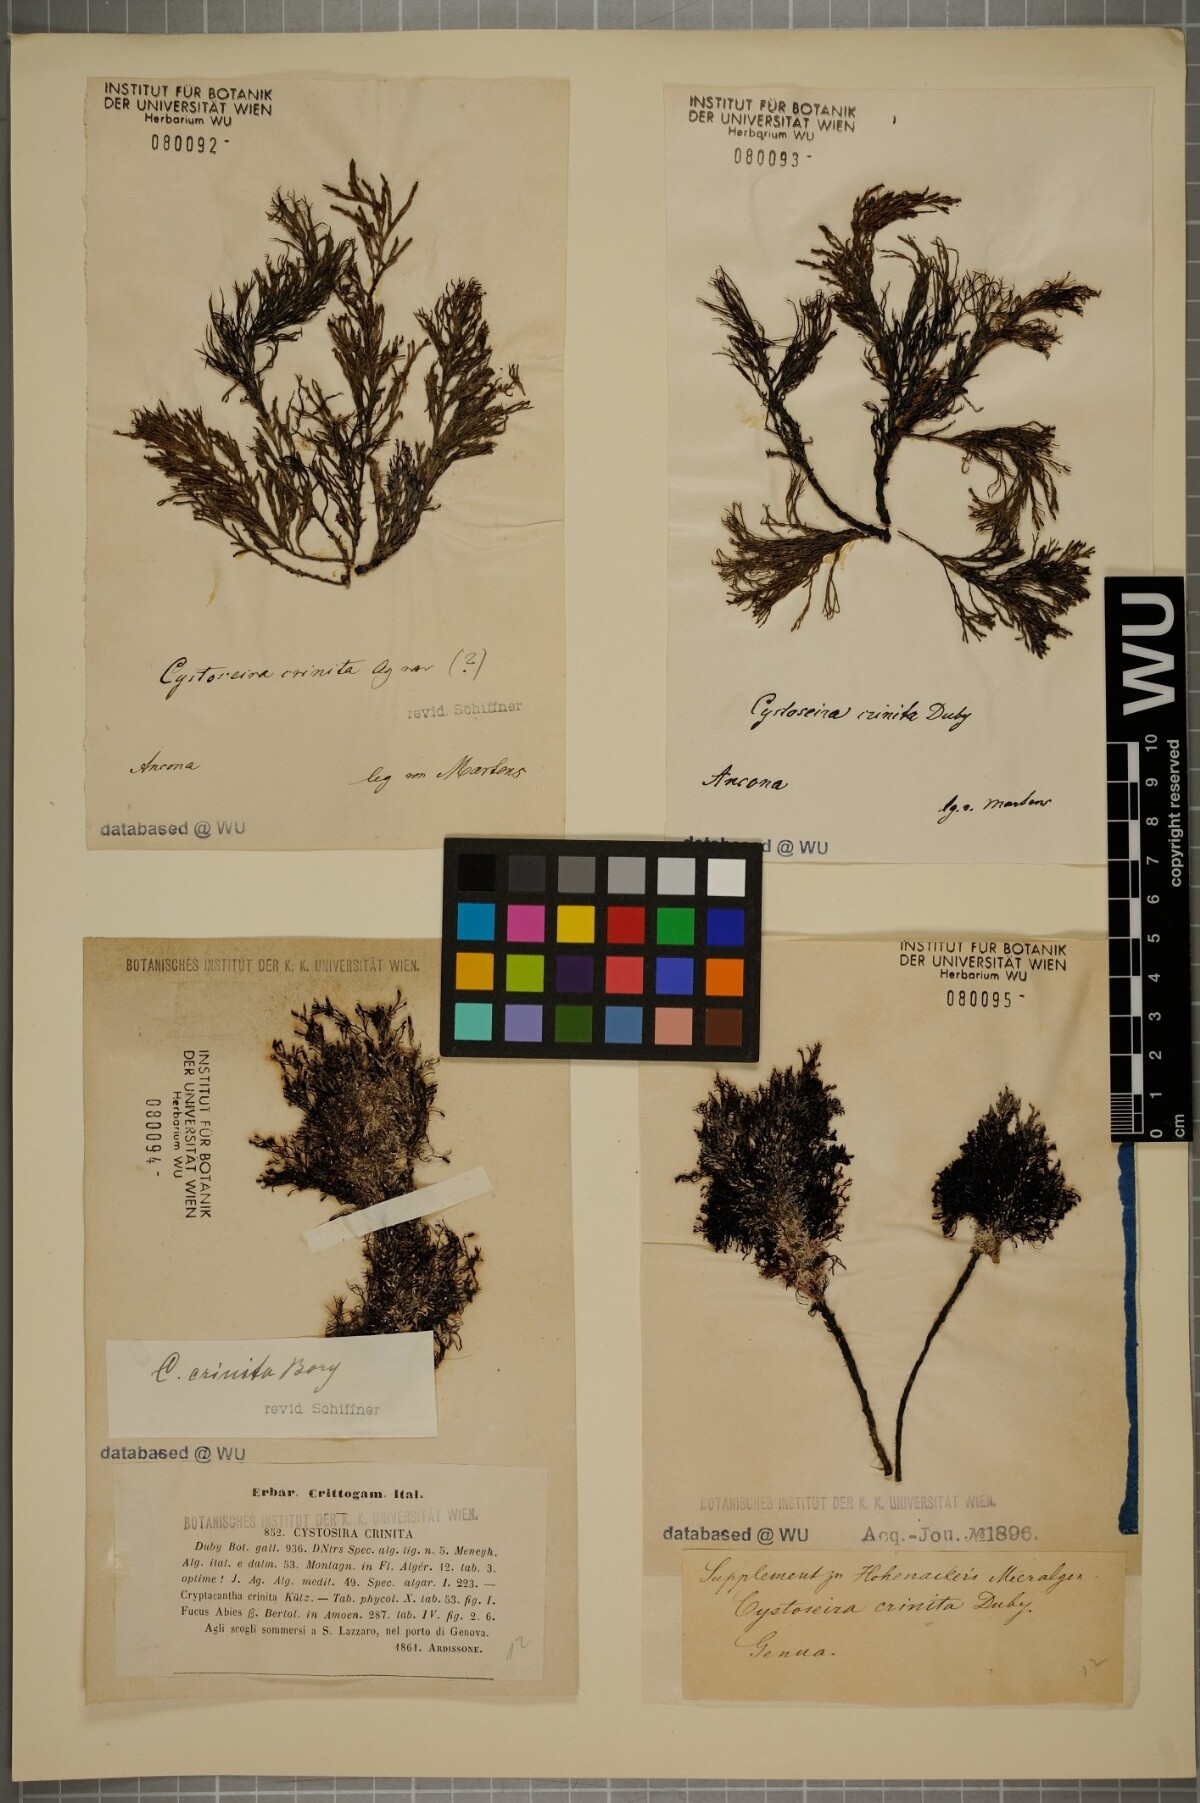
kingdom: Chromista
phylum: Ochrophyta
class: Phaeophyceae
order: Fucales
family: Sargassaceae
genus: Cystoseira
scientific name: Cystoseira Ericaria crinita
